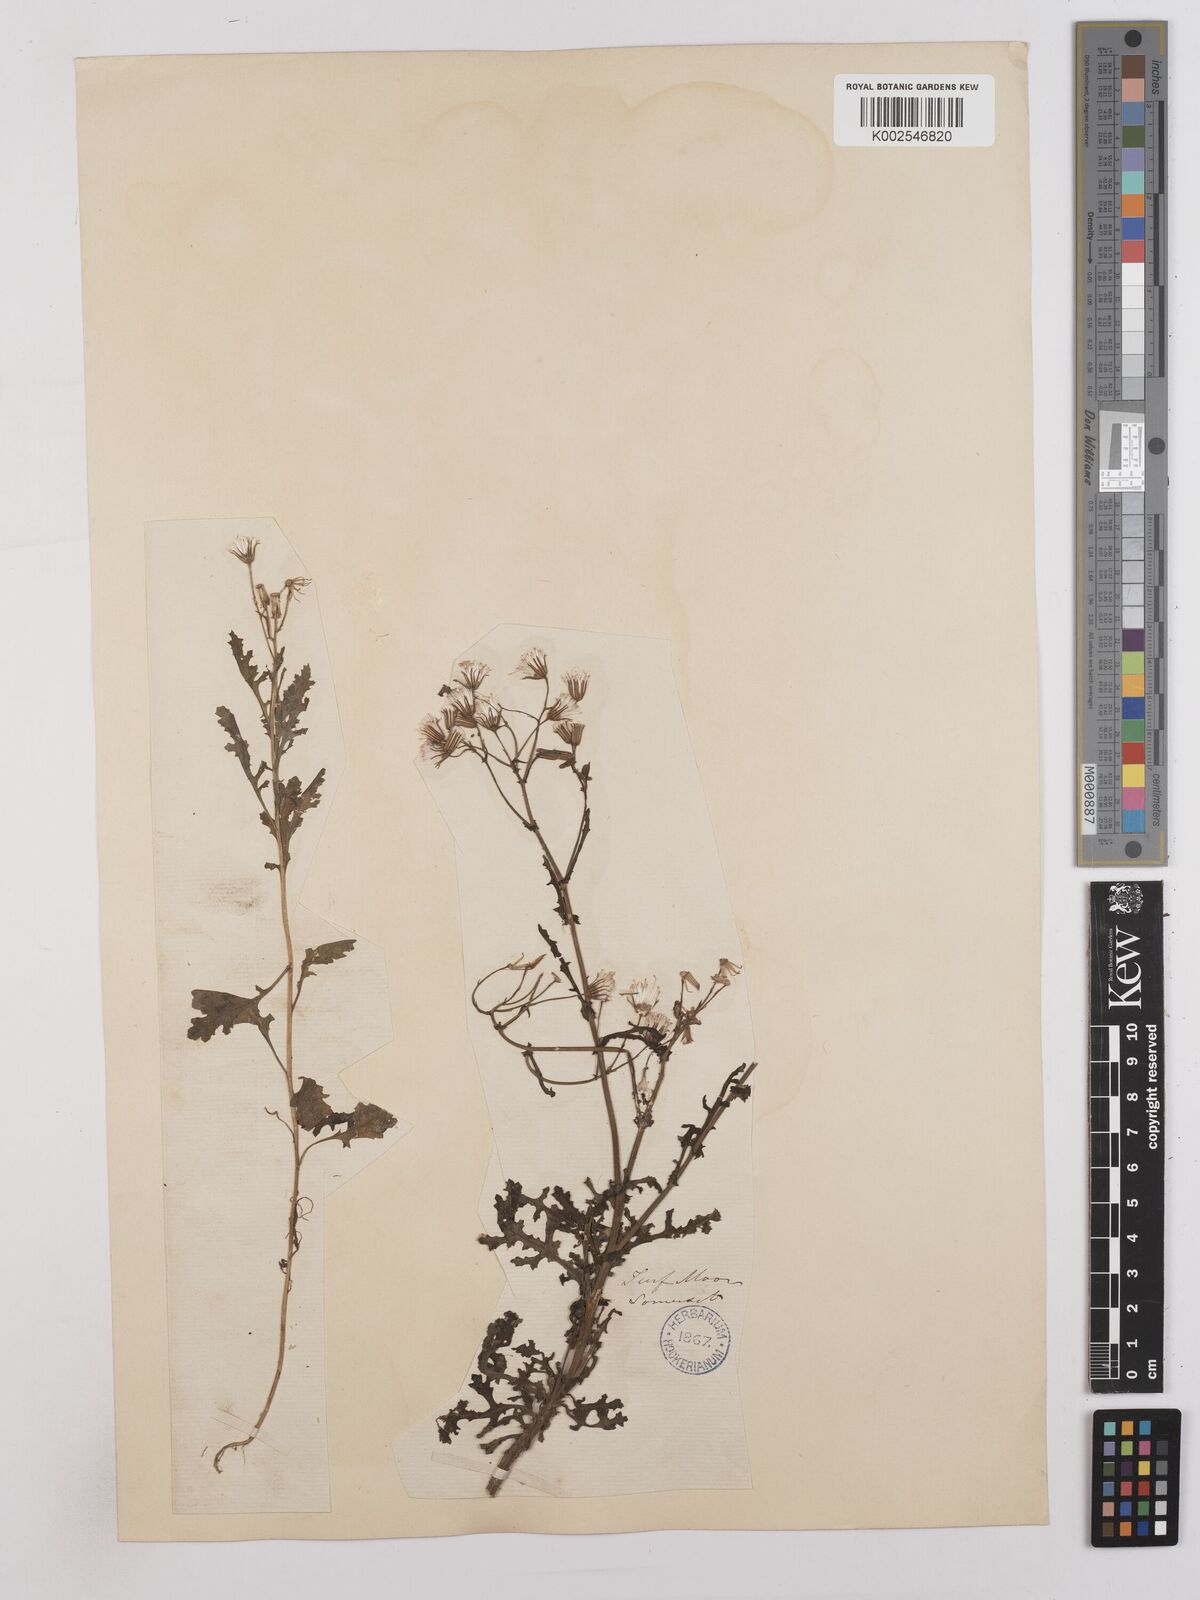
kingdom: Plantae
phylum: Tracheophyta
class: Magnoliopsida
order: Asterales
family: Asteraceae
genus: Senecio
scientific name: Senecio sylvaticus
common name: Woodland ragwort
